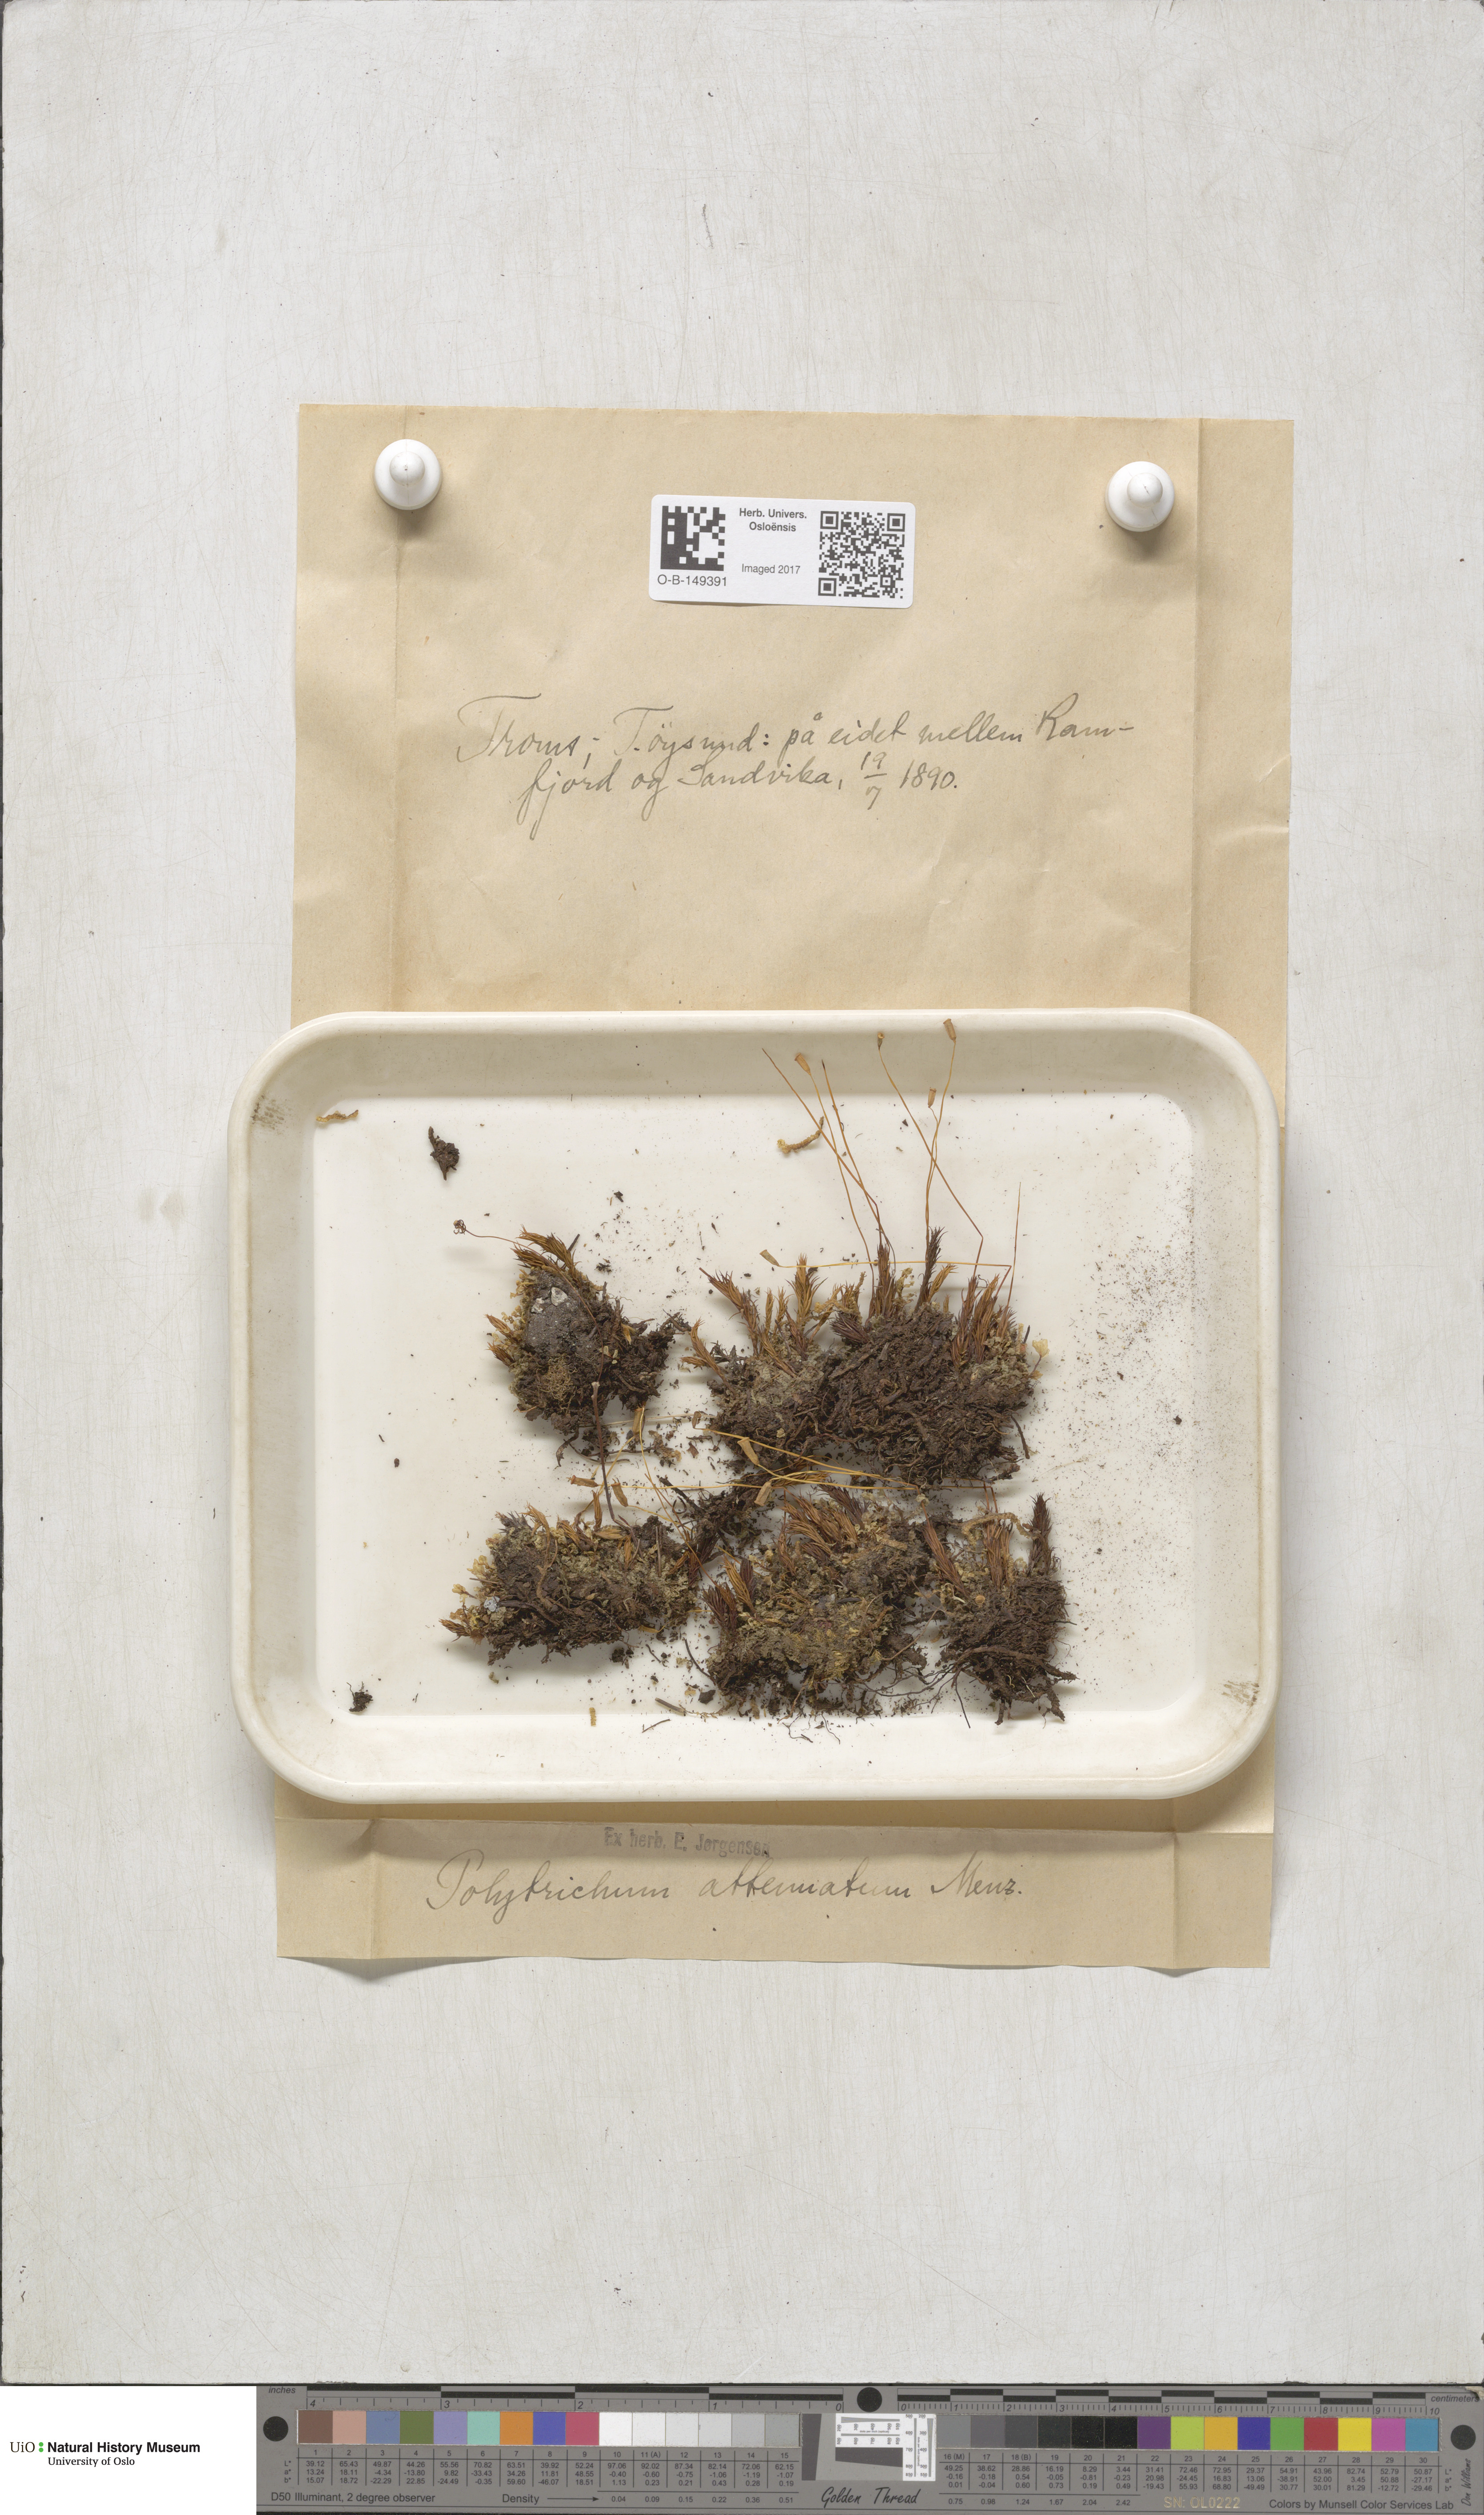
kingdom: Plantae
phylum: Bryophyta
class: Polytrichopsida
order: Polytrichales
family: Polytrichaceae
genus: Polytrichum
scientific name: Polytrichum formosum
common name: Bank haircap moss
